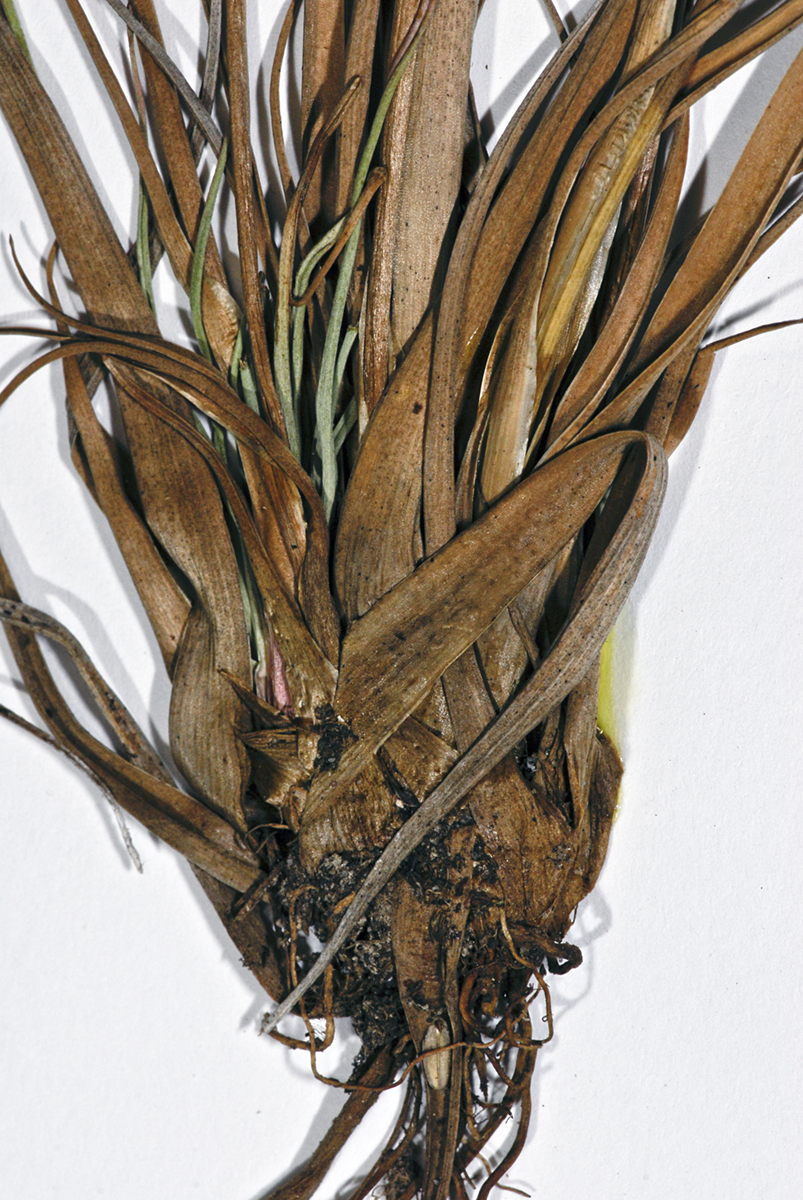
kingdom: Plantae
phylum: Tracheophyta
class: Liliopsida
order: Poales
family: Juncaceae
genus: Juncus
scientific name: Juncus caespiticius
